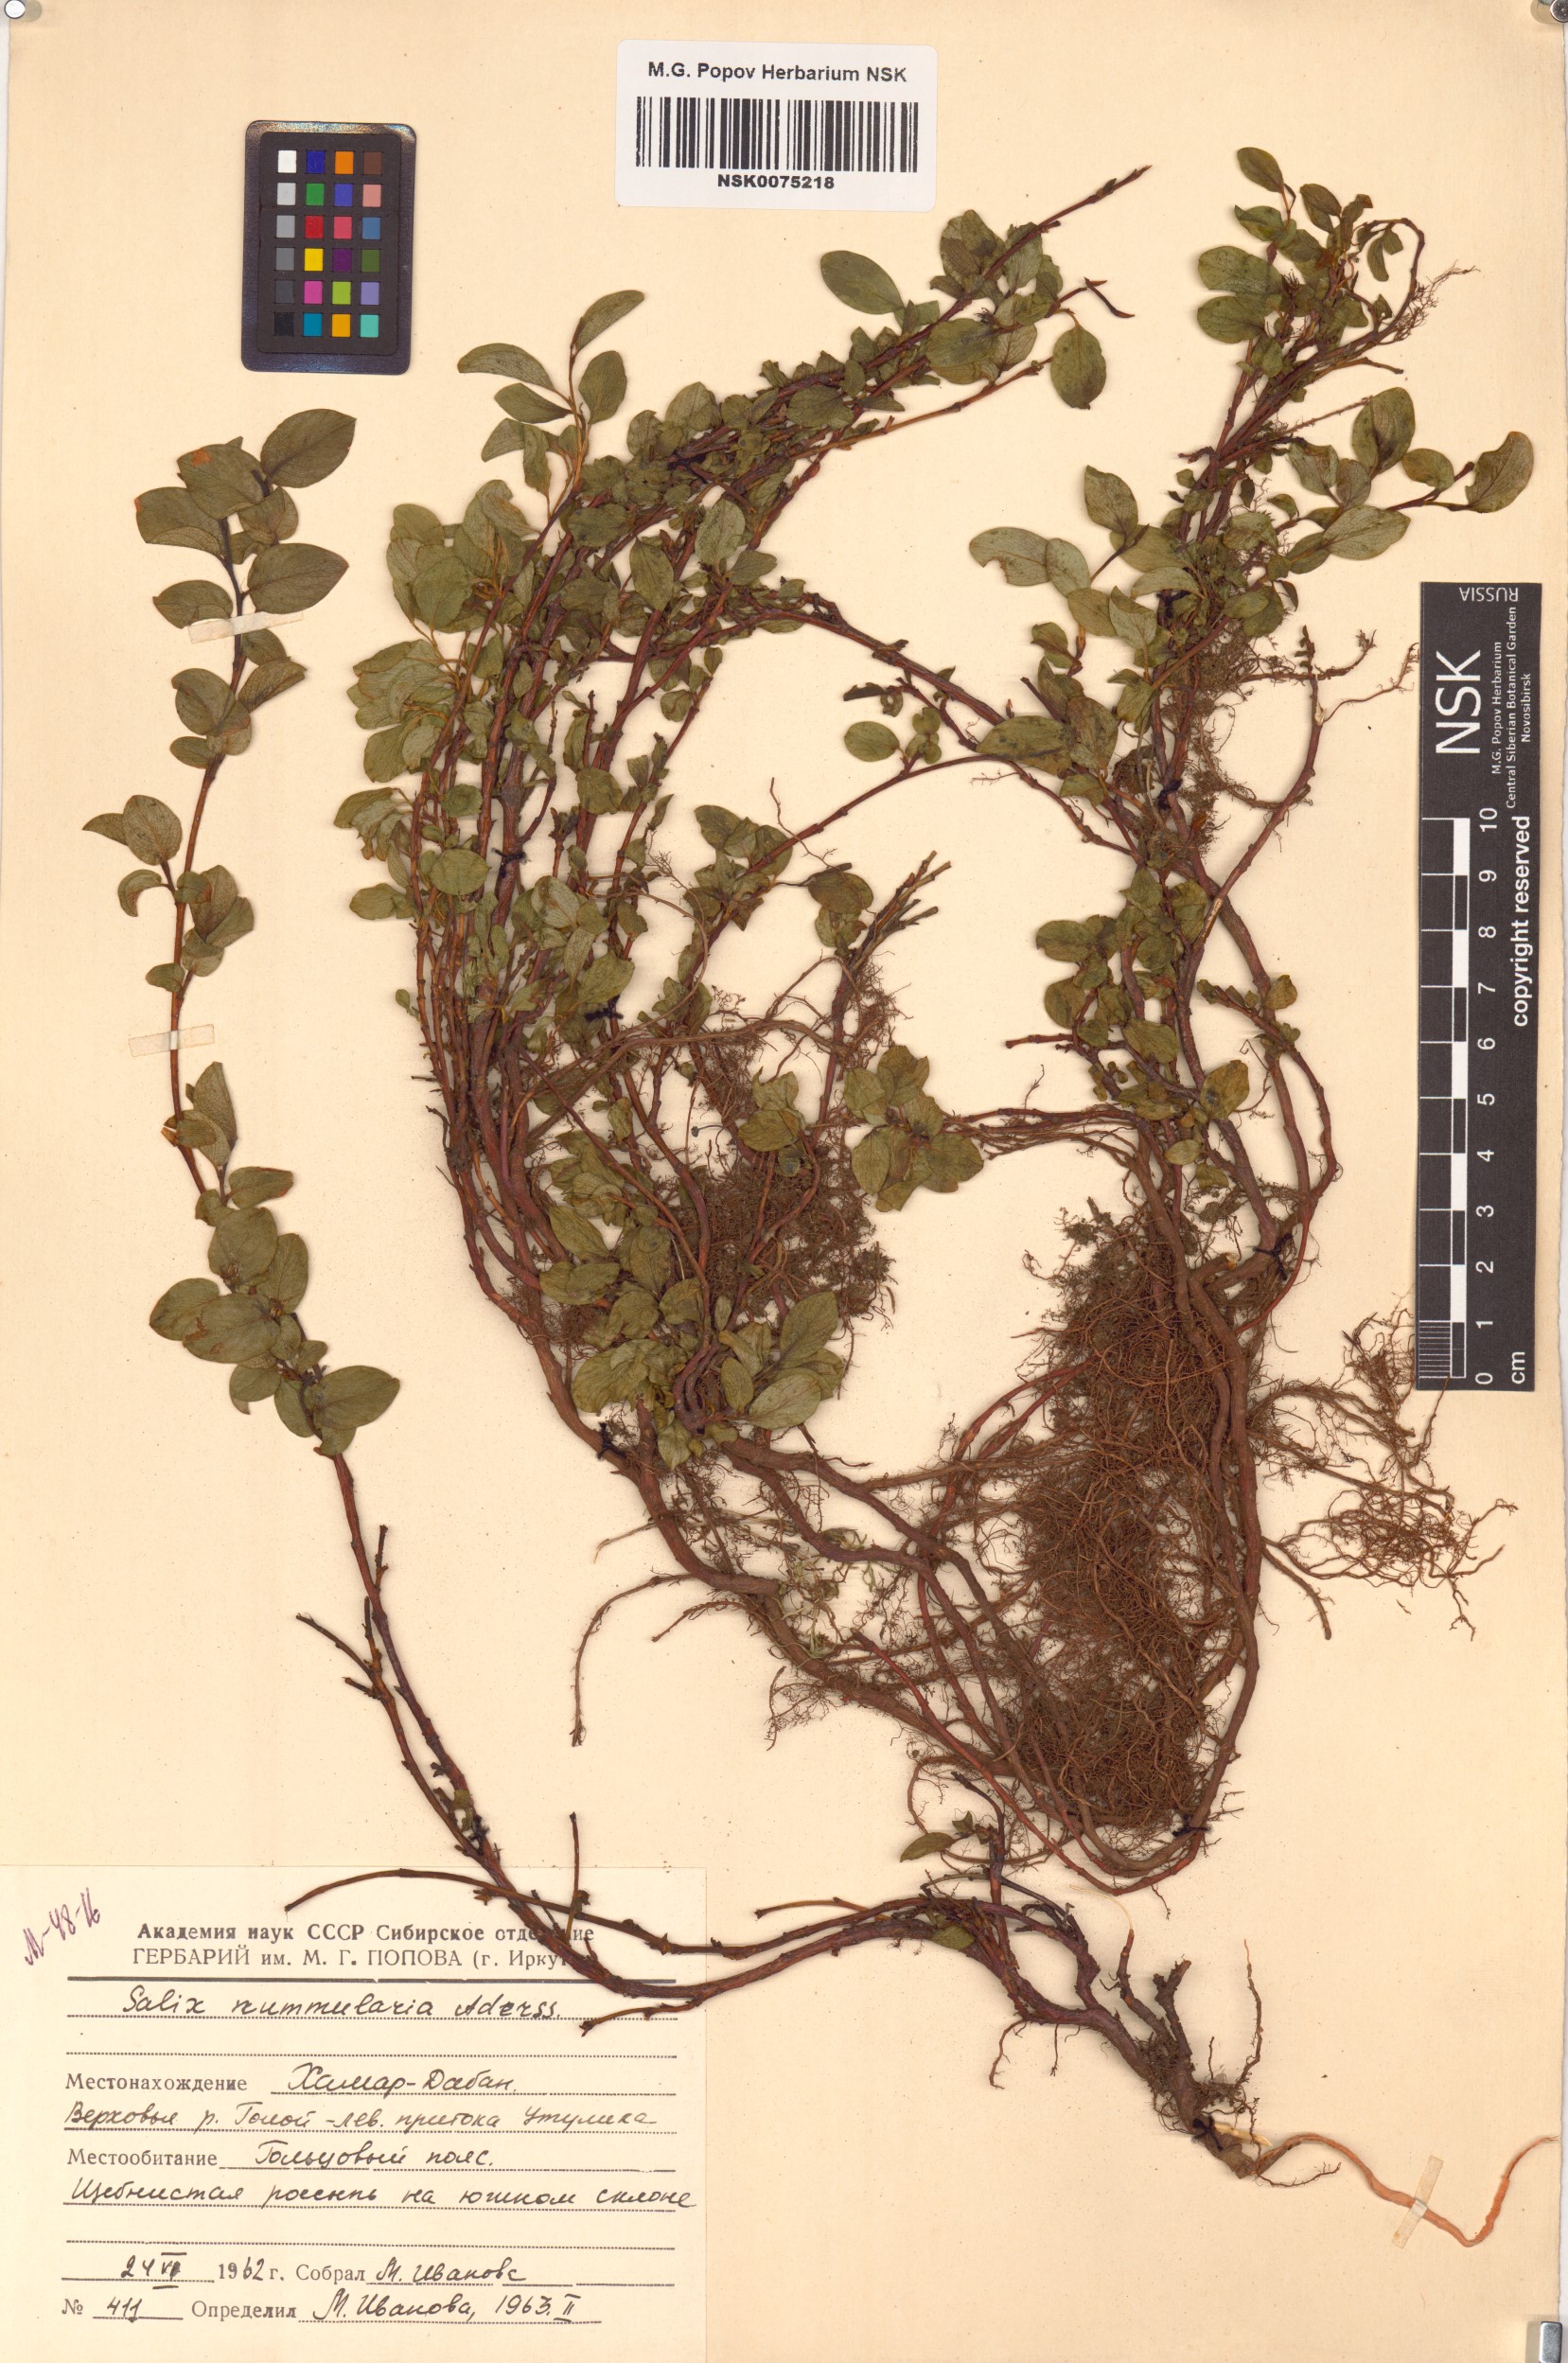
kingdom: Plantae
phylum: Tracheophyta
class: Magnoliopsida
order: Malpighiales
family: Salicaceae
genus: Salix
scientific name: Salix nummularia
